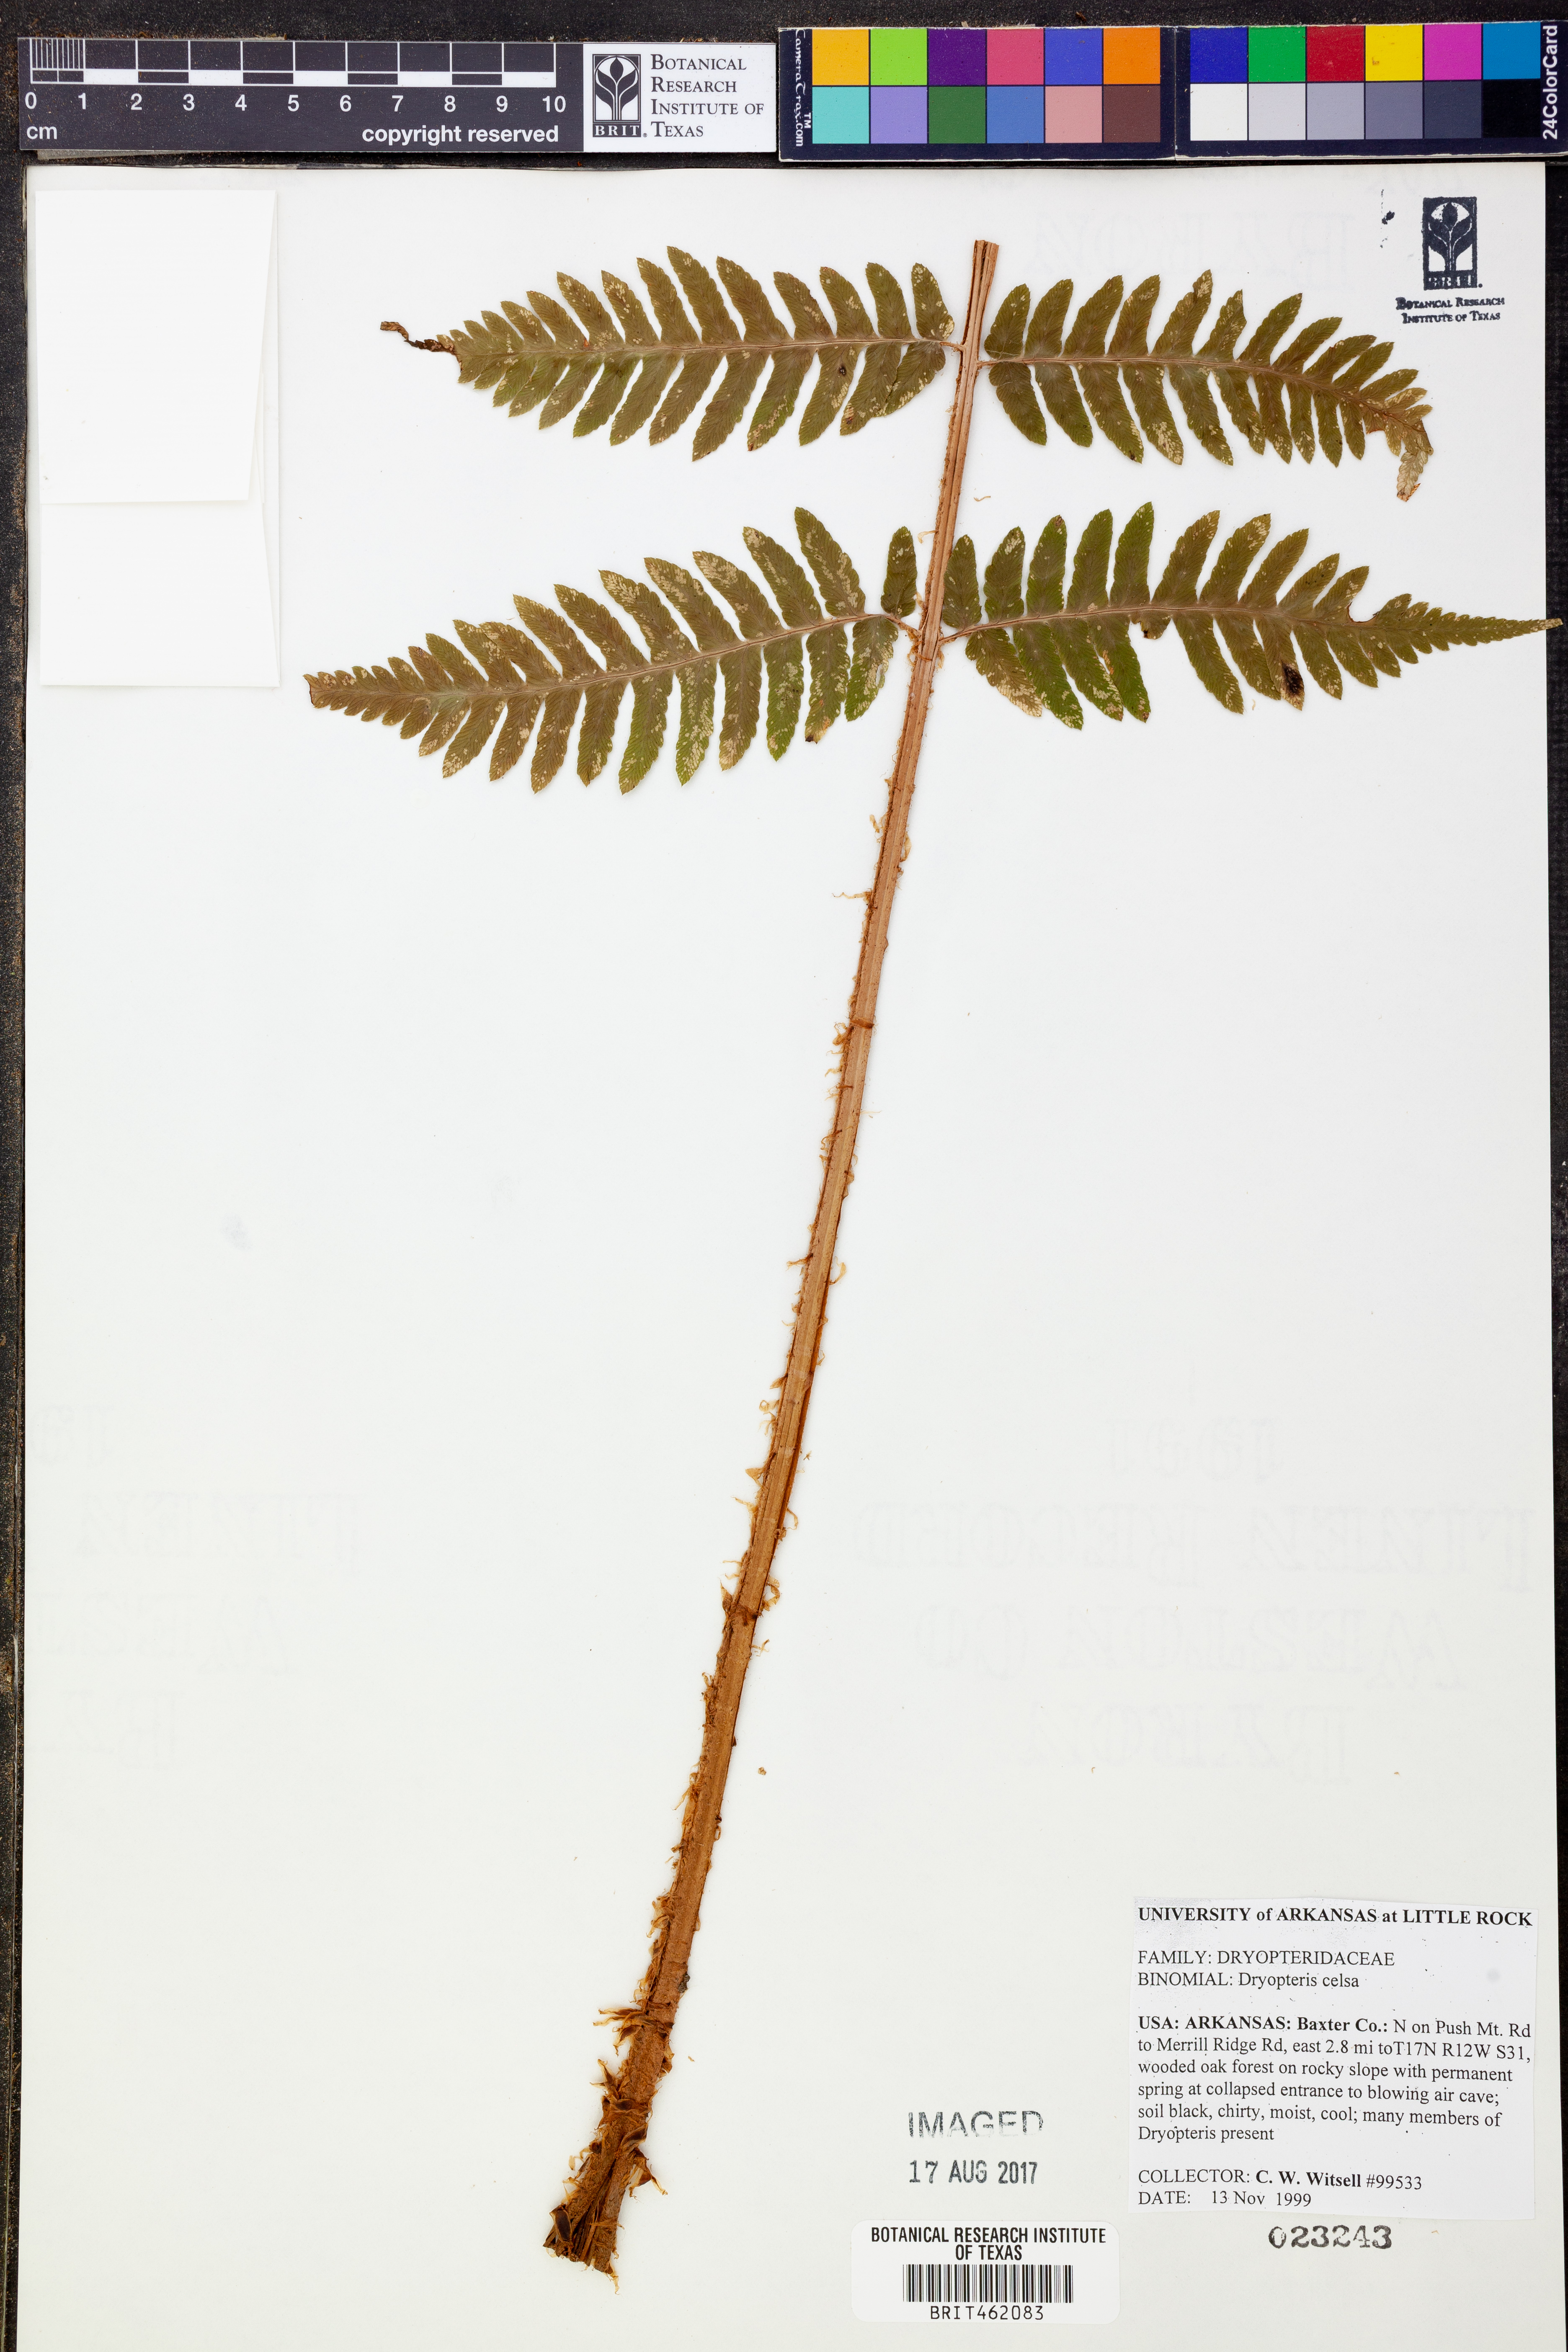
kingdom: Plantae
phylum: Tracheophyta
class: Polypodiopsida
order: Polypodiales
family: Dryopteridaceae
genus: Dryopteris
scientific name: Dryopteris celsa
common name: Log fern
